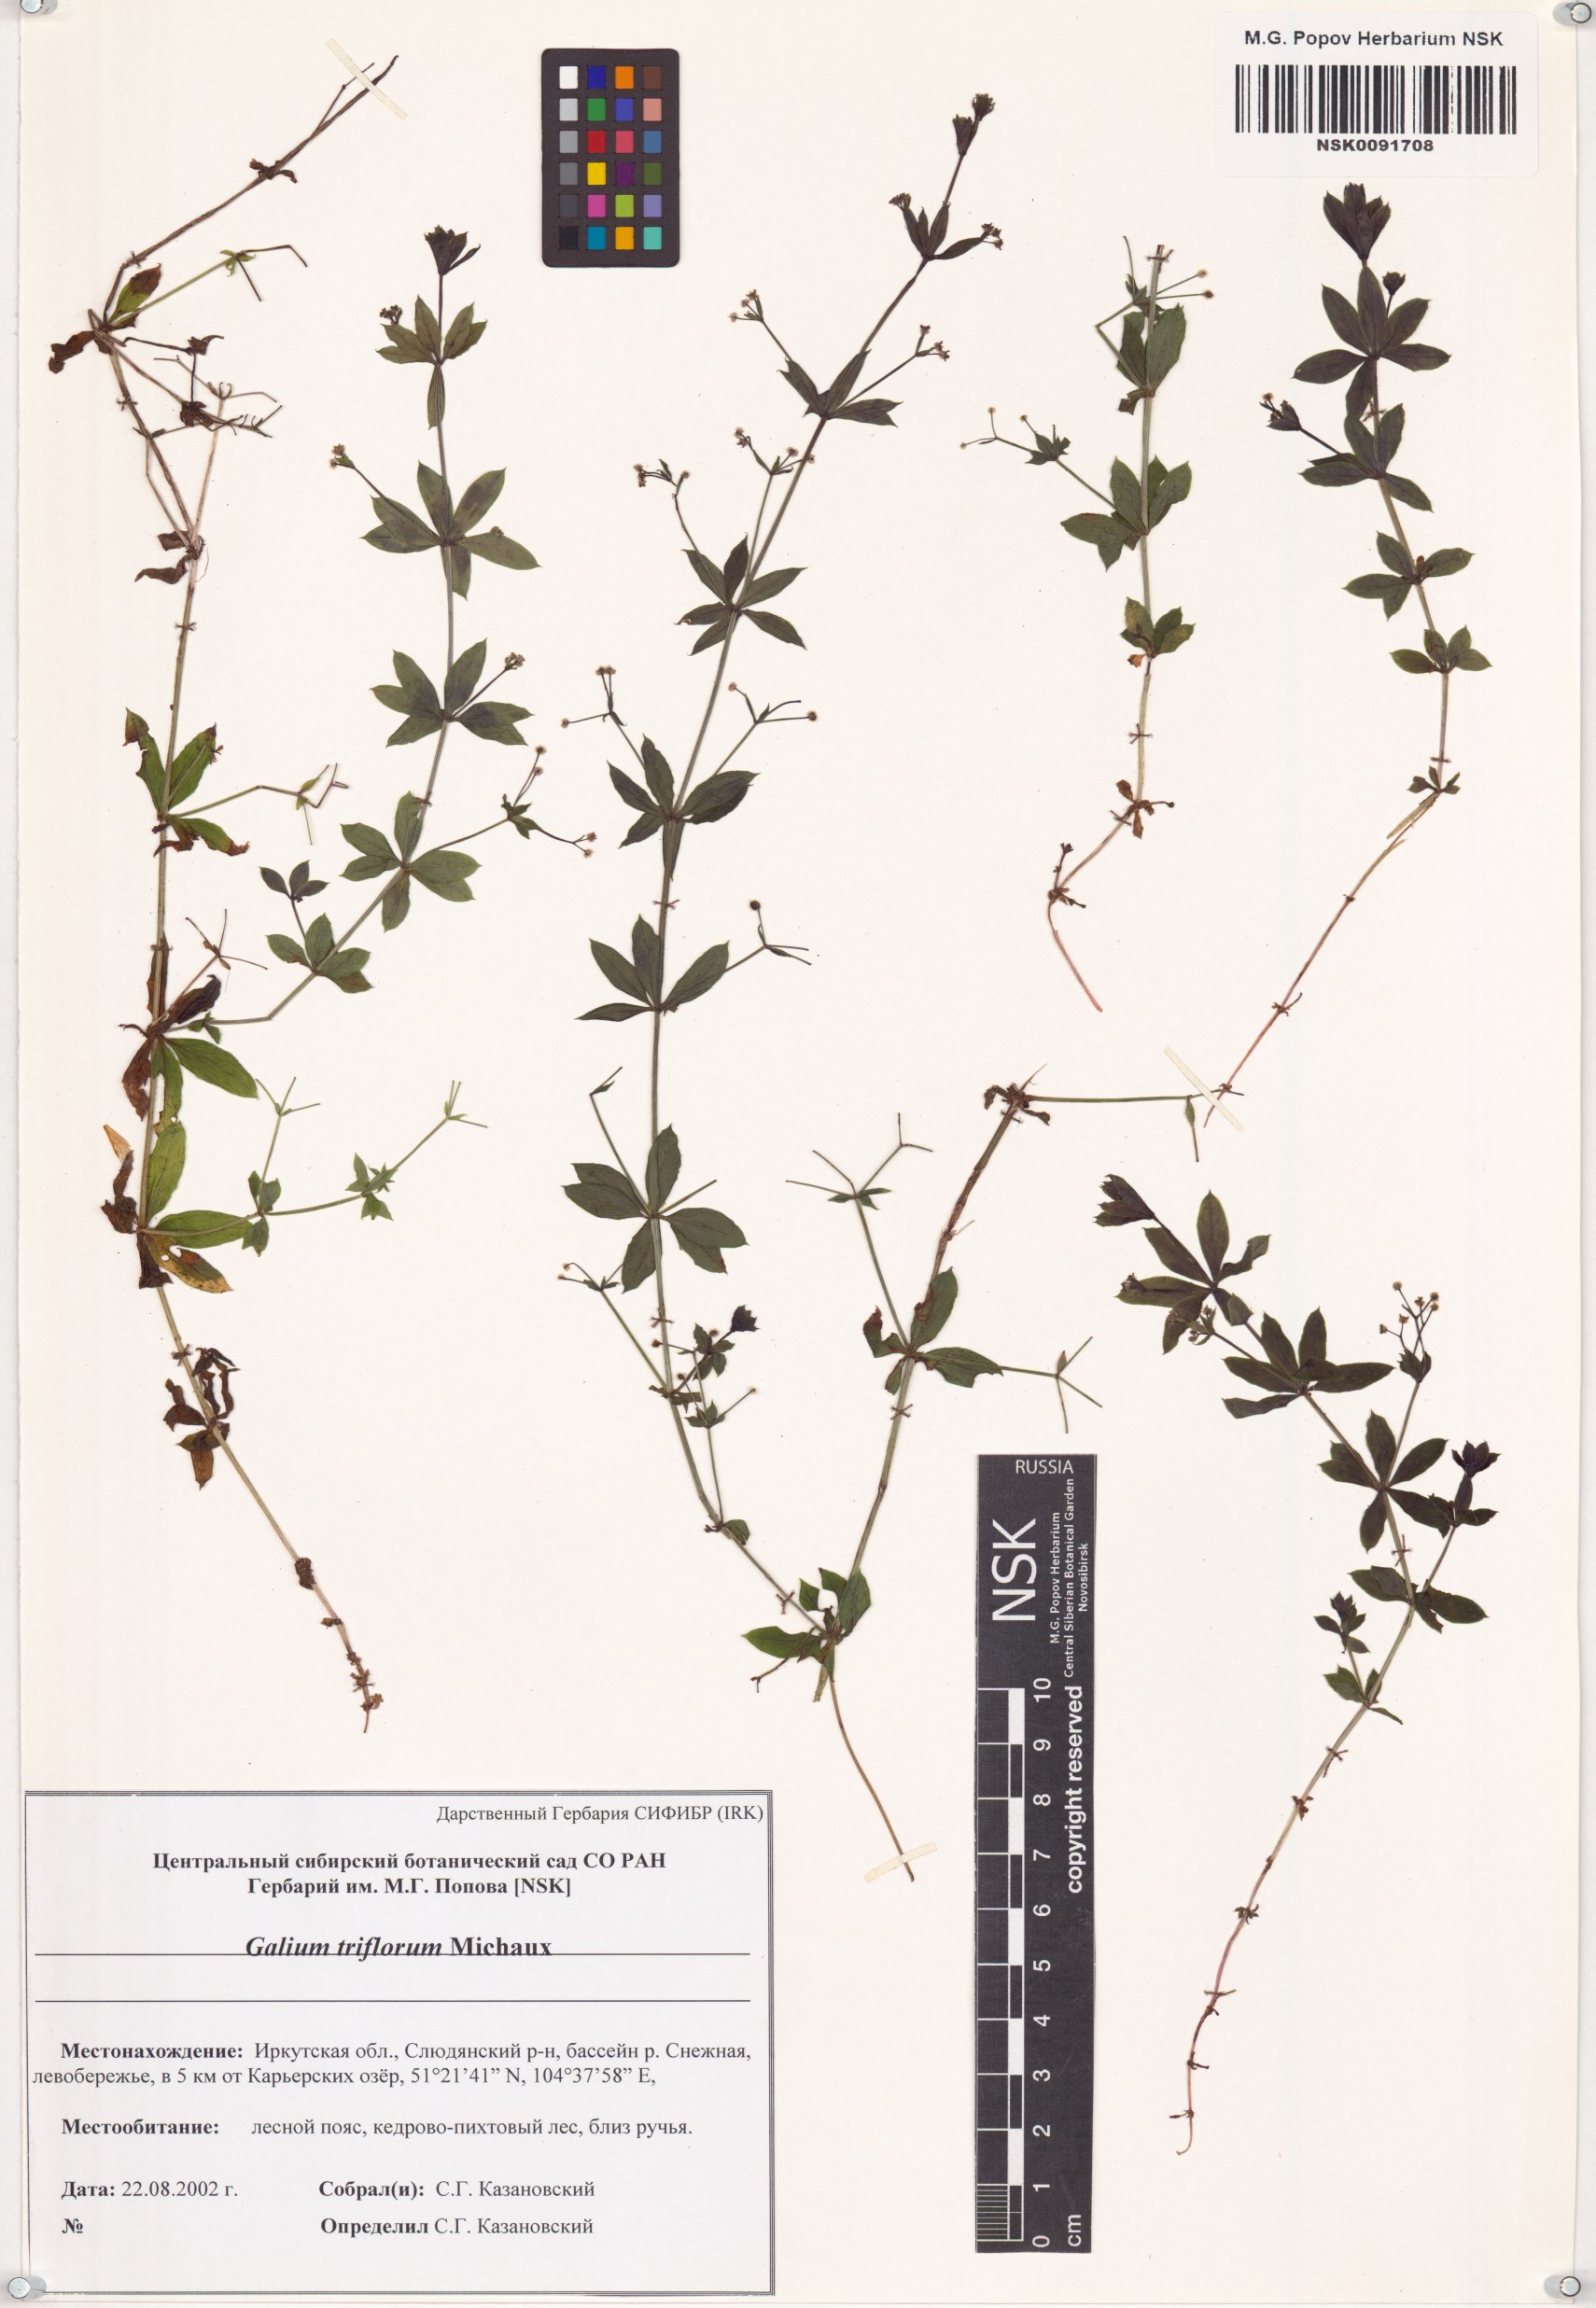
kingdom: Plantae
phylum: Tracheophyta
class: Magnoliopsida
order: Gentianales
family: Rubiaceae
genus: Galium
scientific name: Galium triflorum
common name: Fragrant bedstraw
